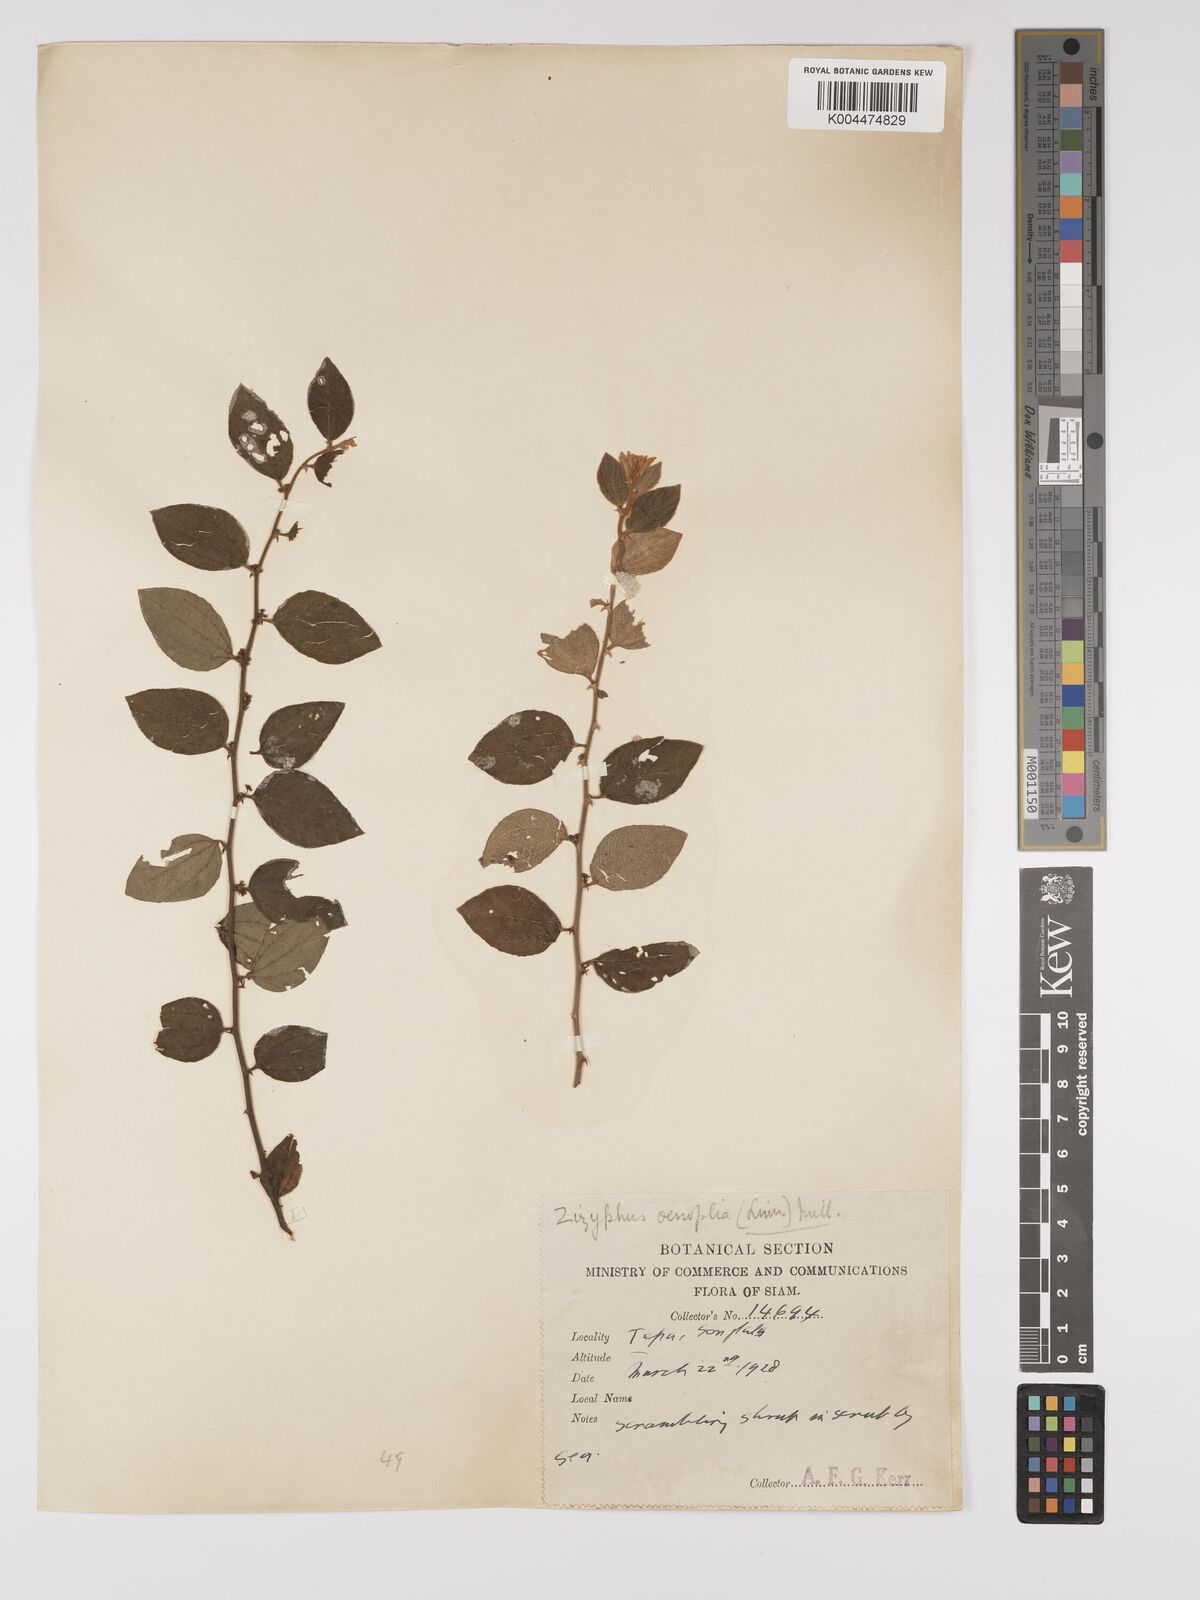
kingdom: Plantae
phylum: Tracheophyta
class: Magnoliopsida
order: Rosales
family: Rhamnaceae
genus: Ziziphus
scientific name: Ziziphus oenopolia
